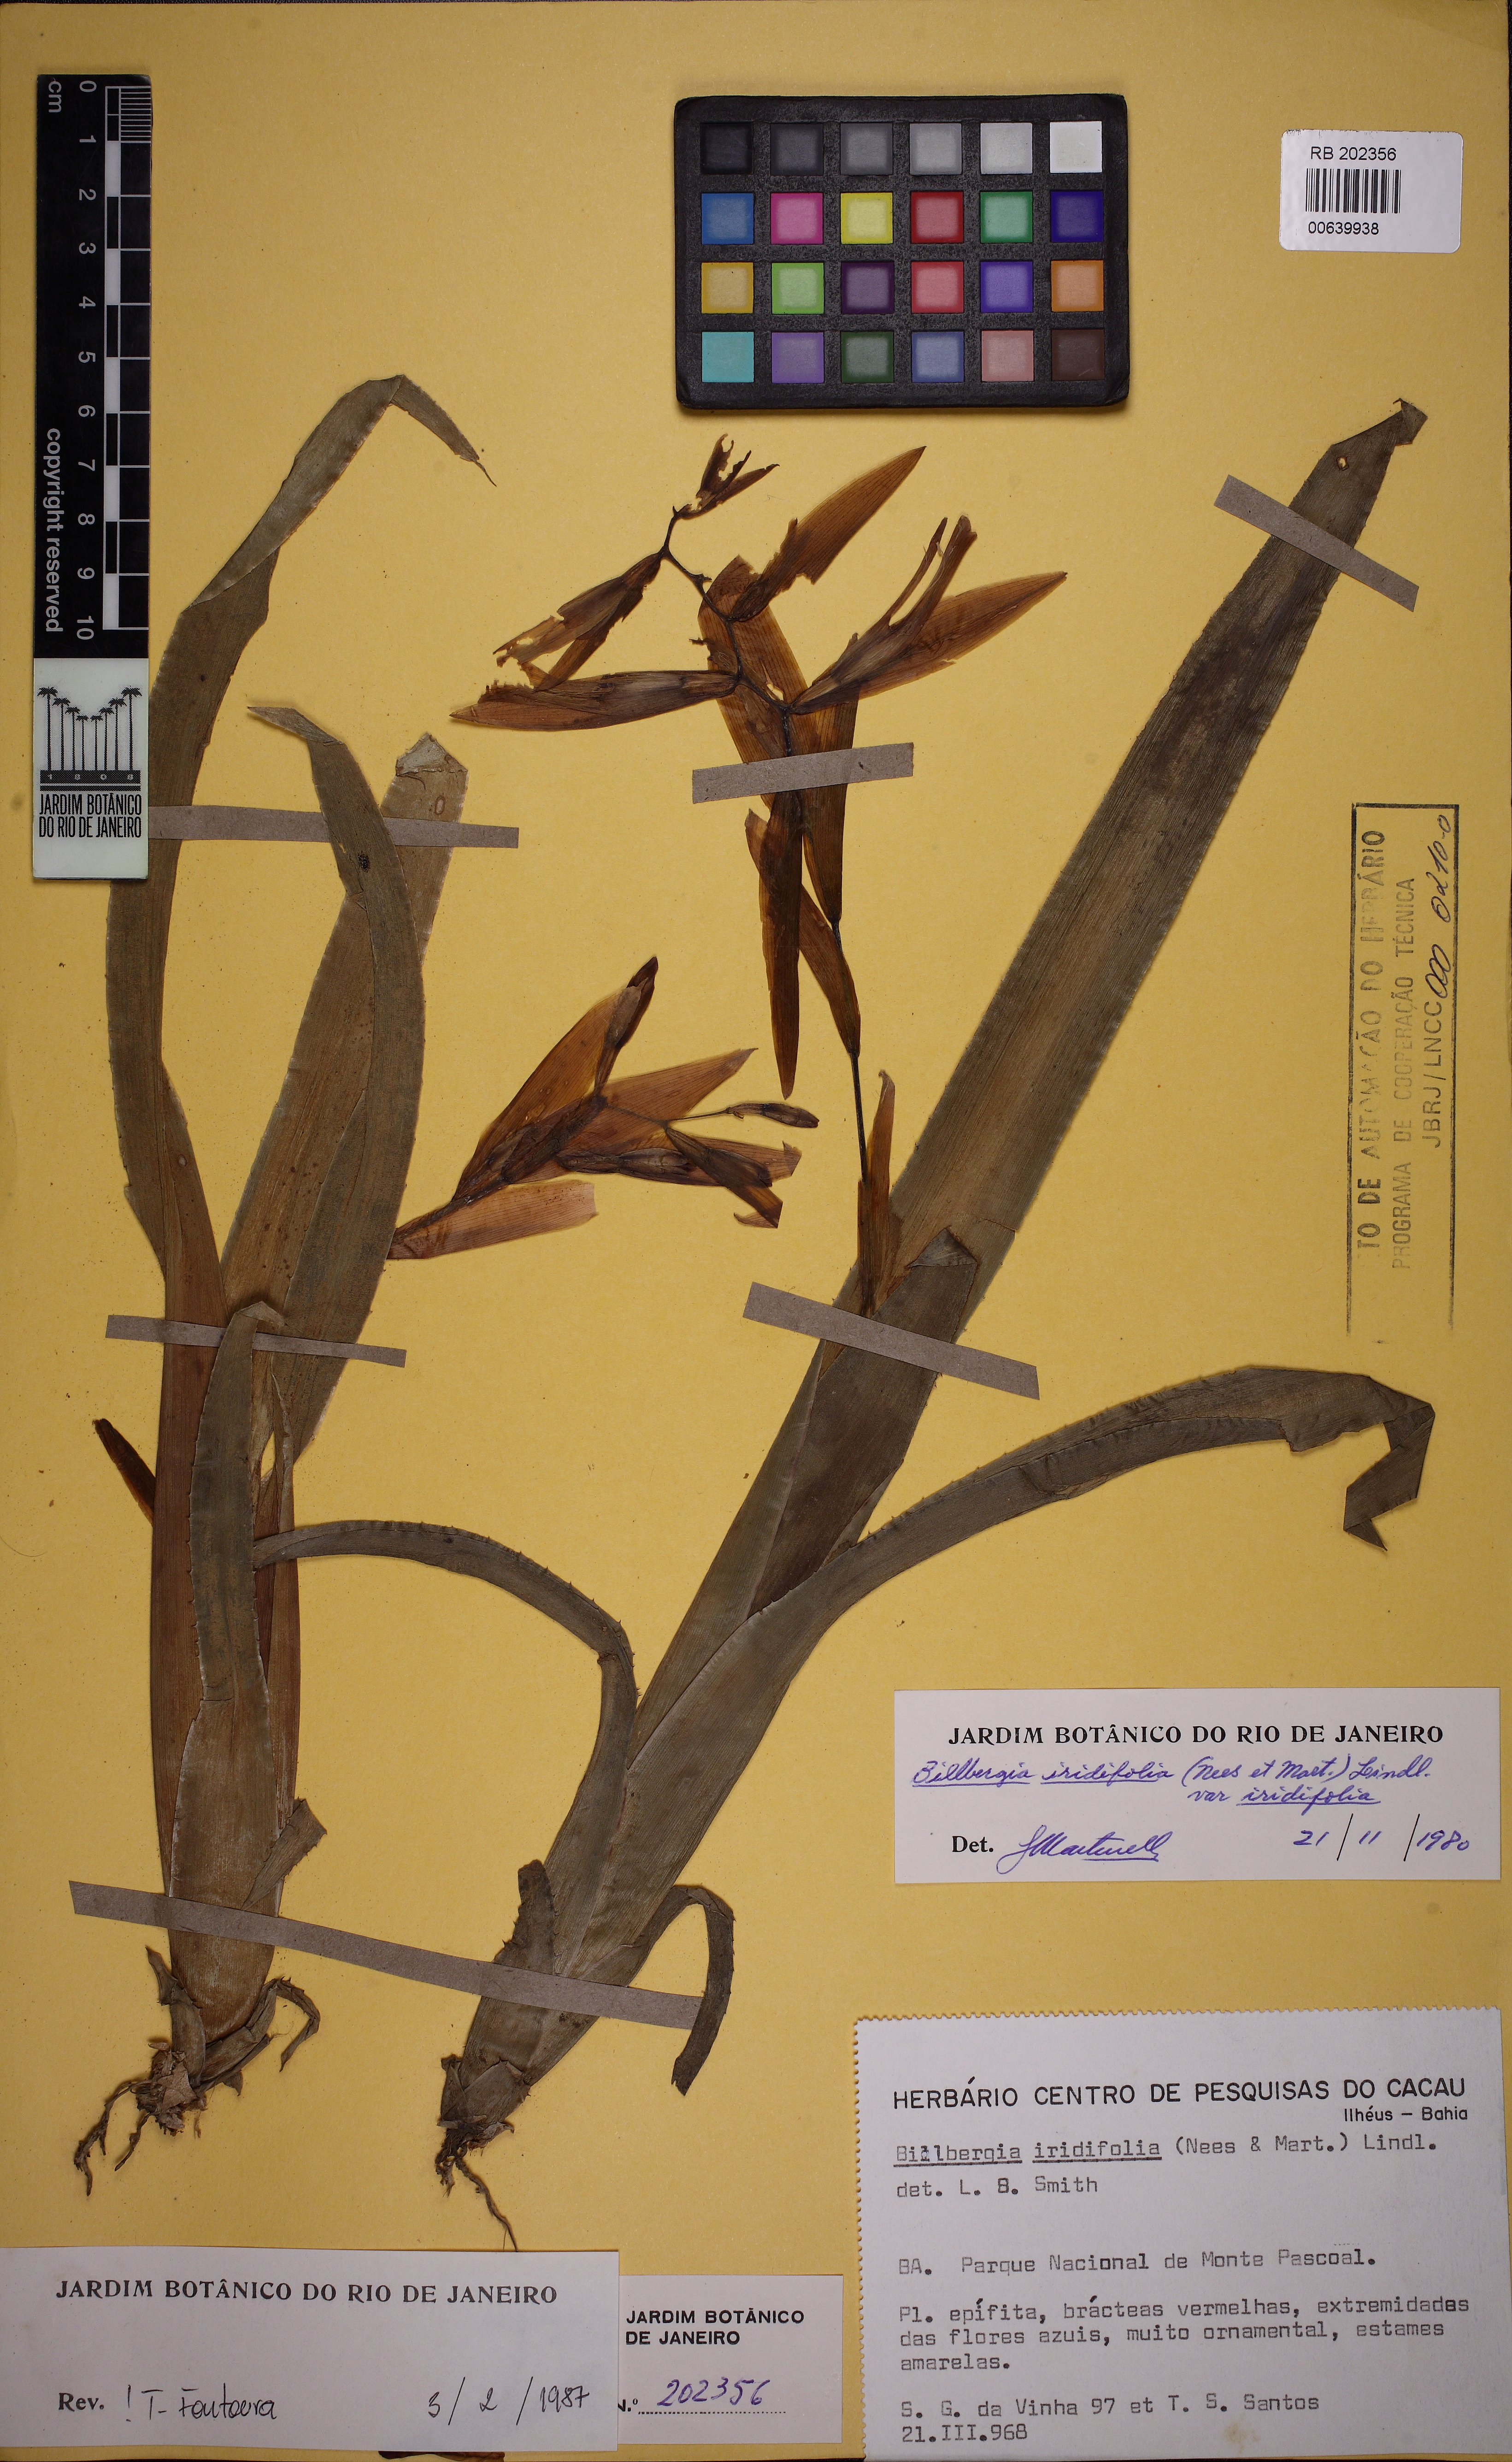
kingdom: Plantae
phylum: Tracheophyta
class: Liliopsida
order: Poales
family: Bromeliaceae
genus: Billbergia
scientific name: Billbergia iridifolia
